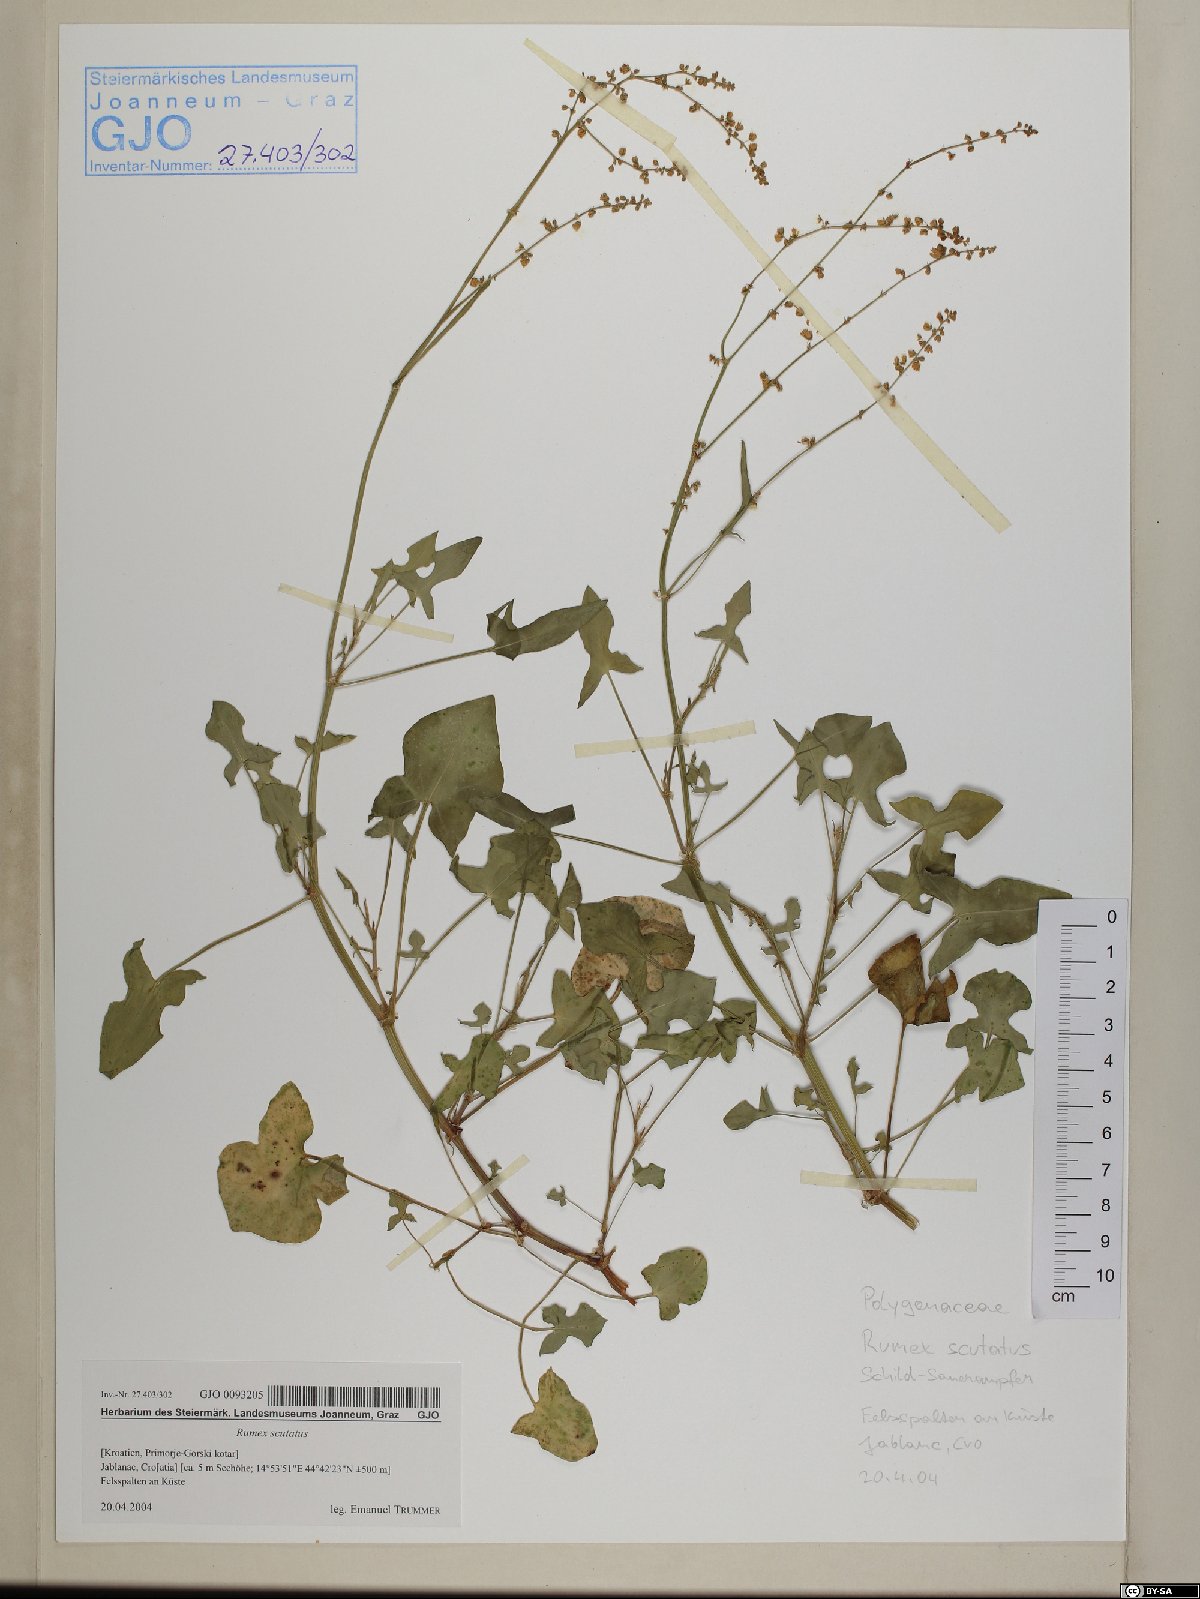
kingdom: Plantae
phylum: Tracheophyta
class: Magnoliopsida
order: Caryophyllales
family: Polygonaceae
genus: Rumex
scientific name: Rumex scutatus
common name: French sorrel
